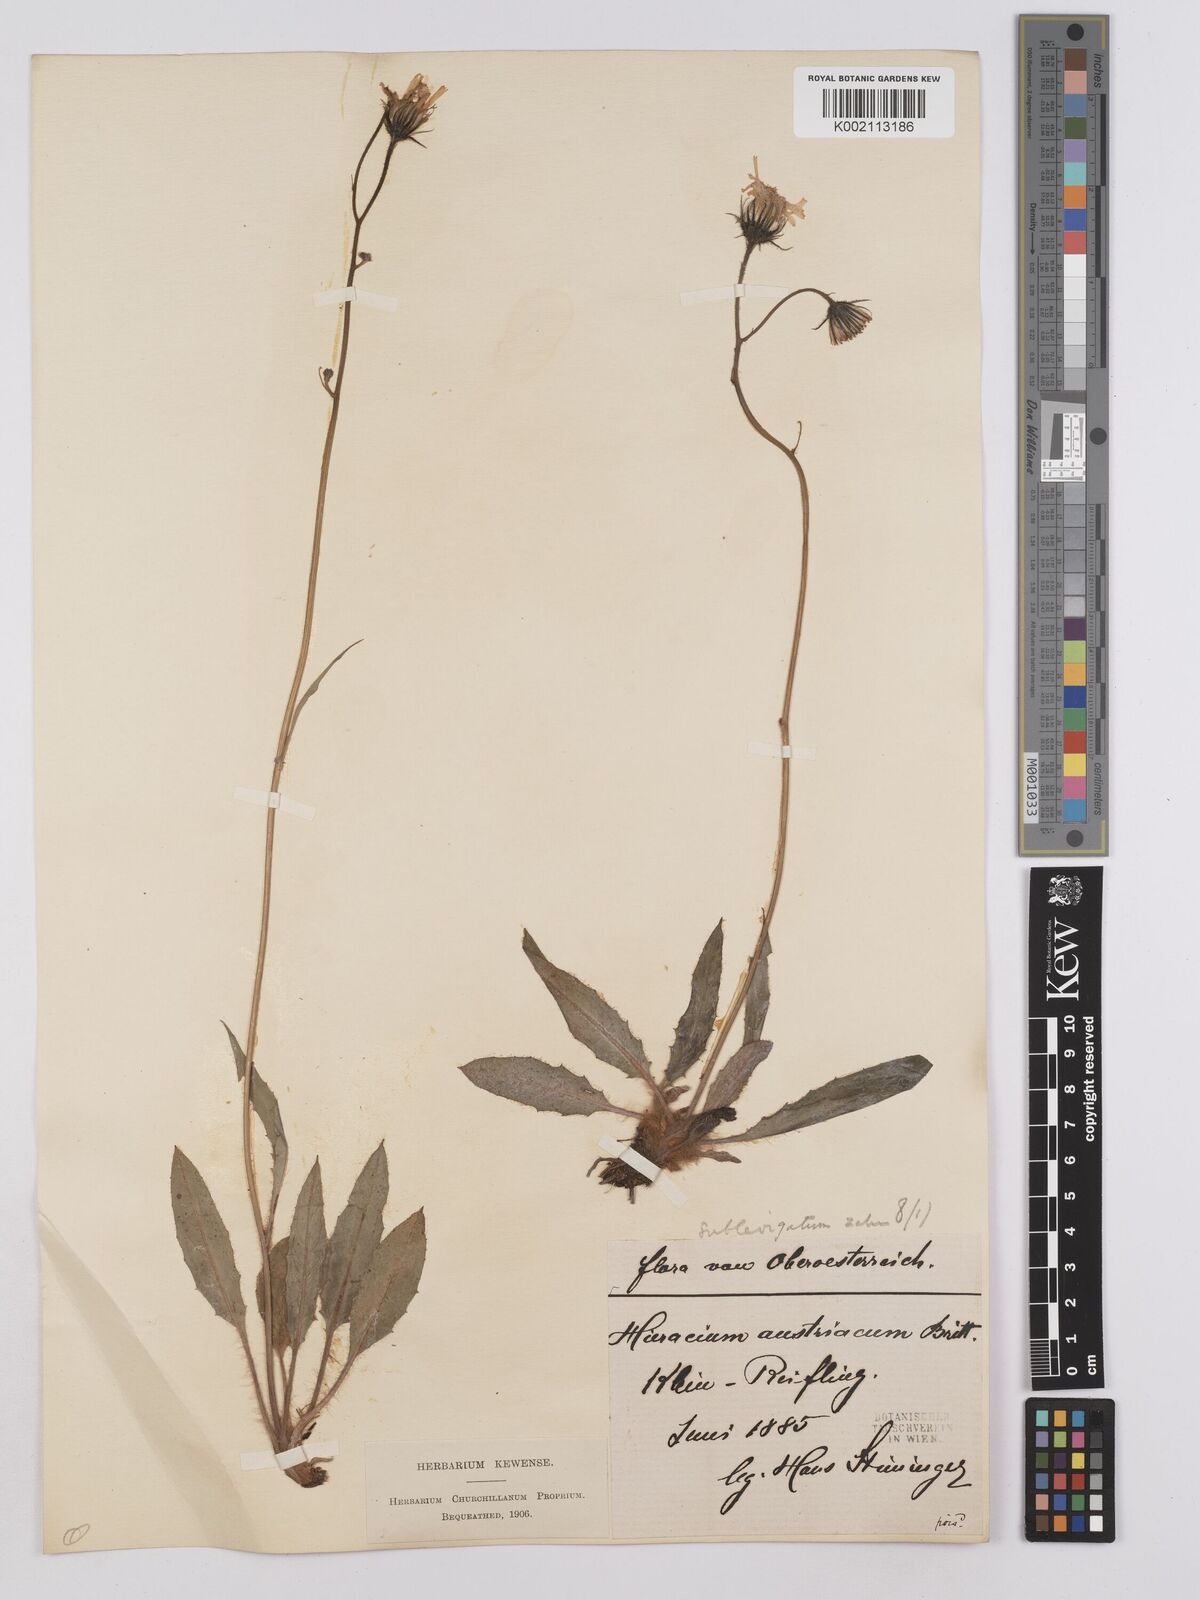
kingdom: Plantae
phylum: Tracheophyta
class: Magnoliopsida
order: Asterales
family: Asteraceae
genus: Crepis
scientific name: Crepis blattarioides
